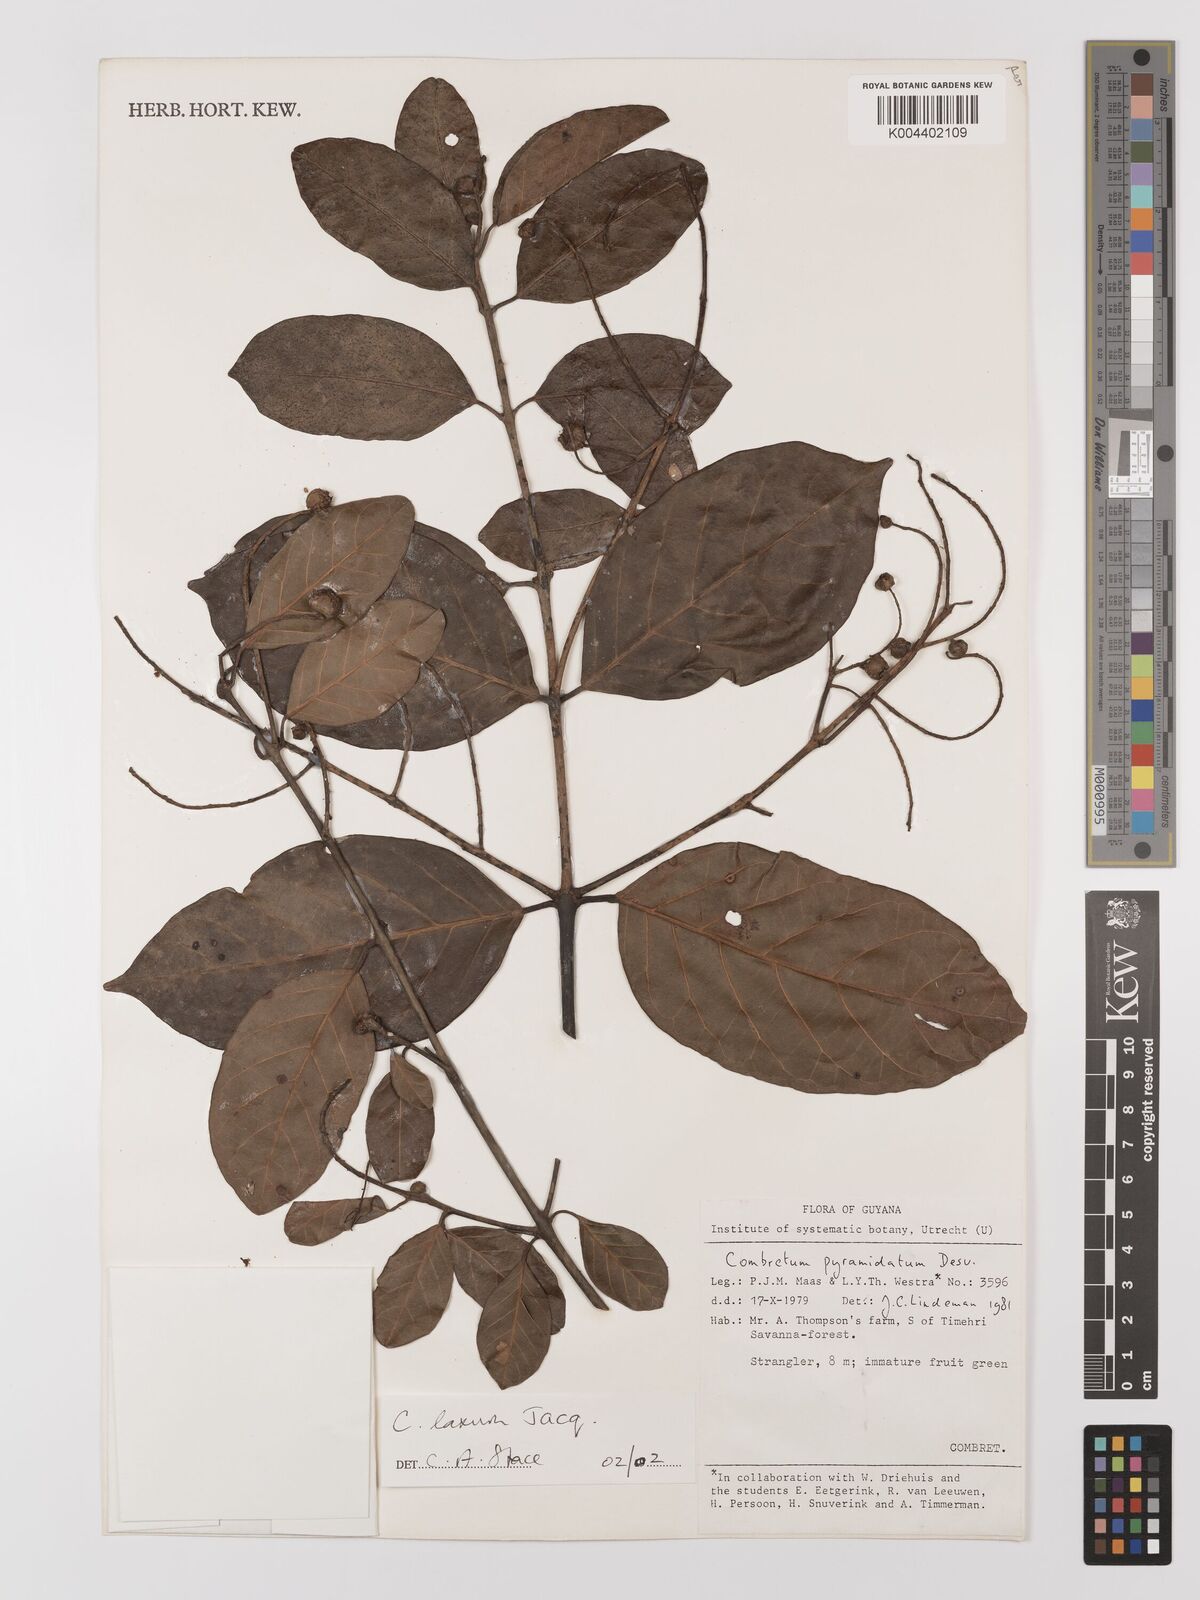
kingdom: Plantae
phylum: Tracheophyta
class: Magnoliopsida
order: Myrtales
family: Combretaceae
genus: Combretum
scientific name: Combretum
